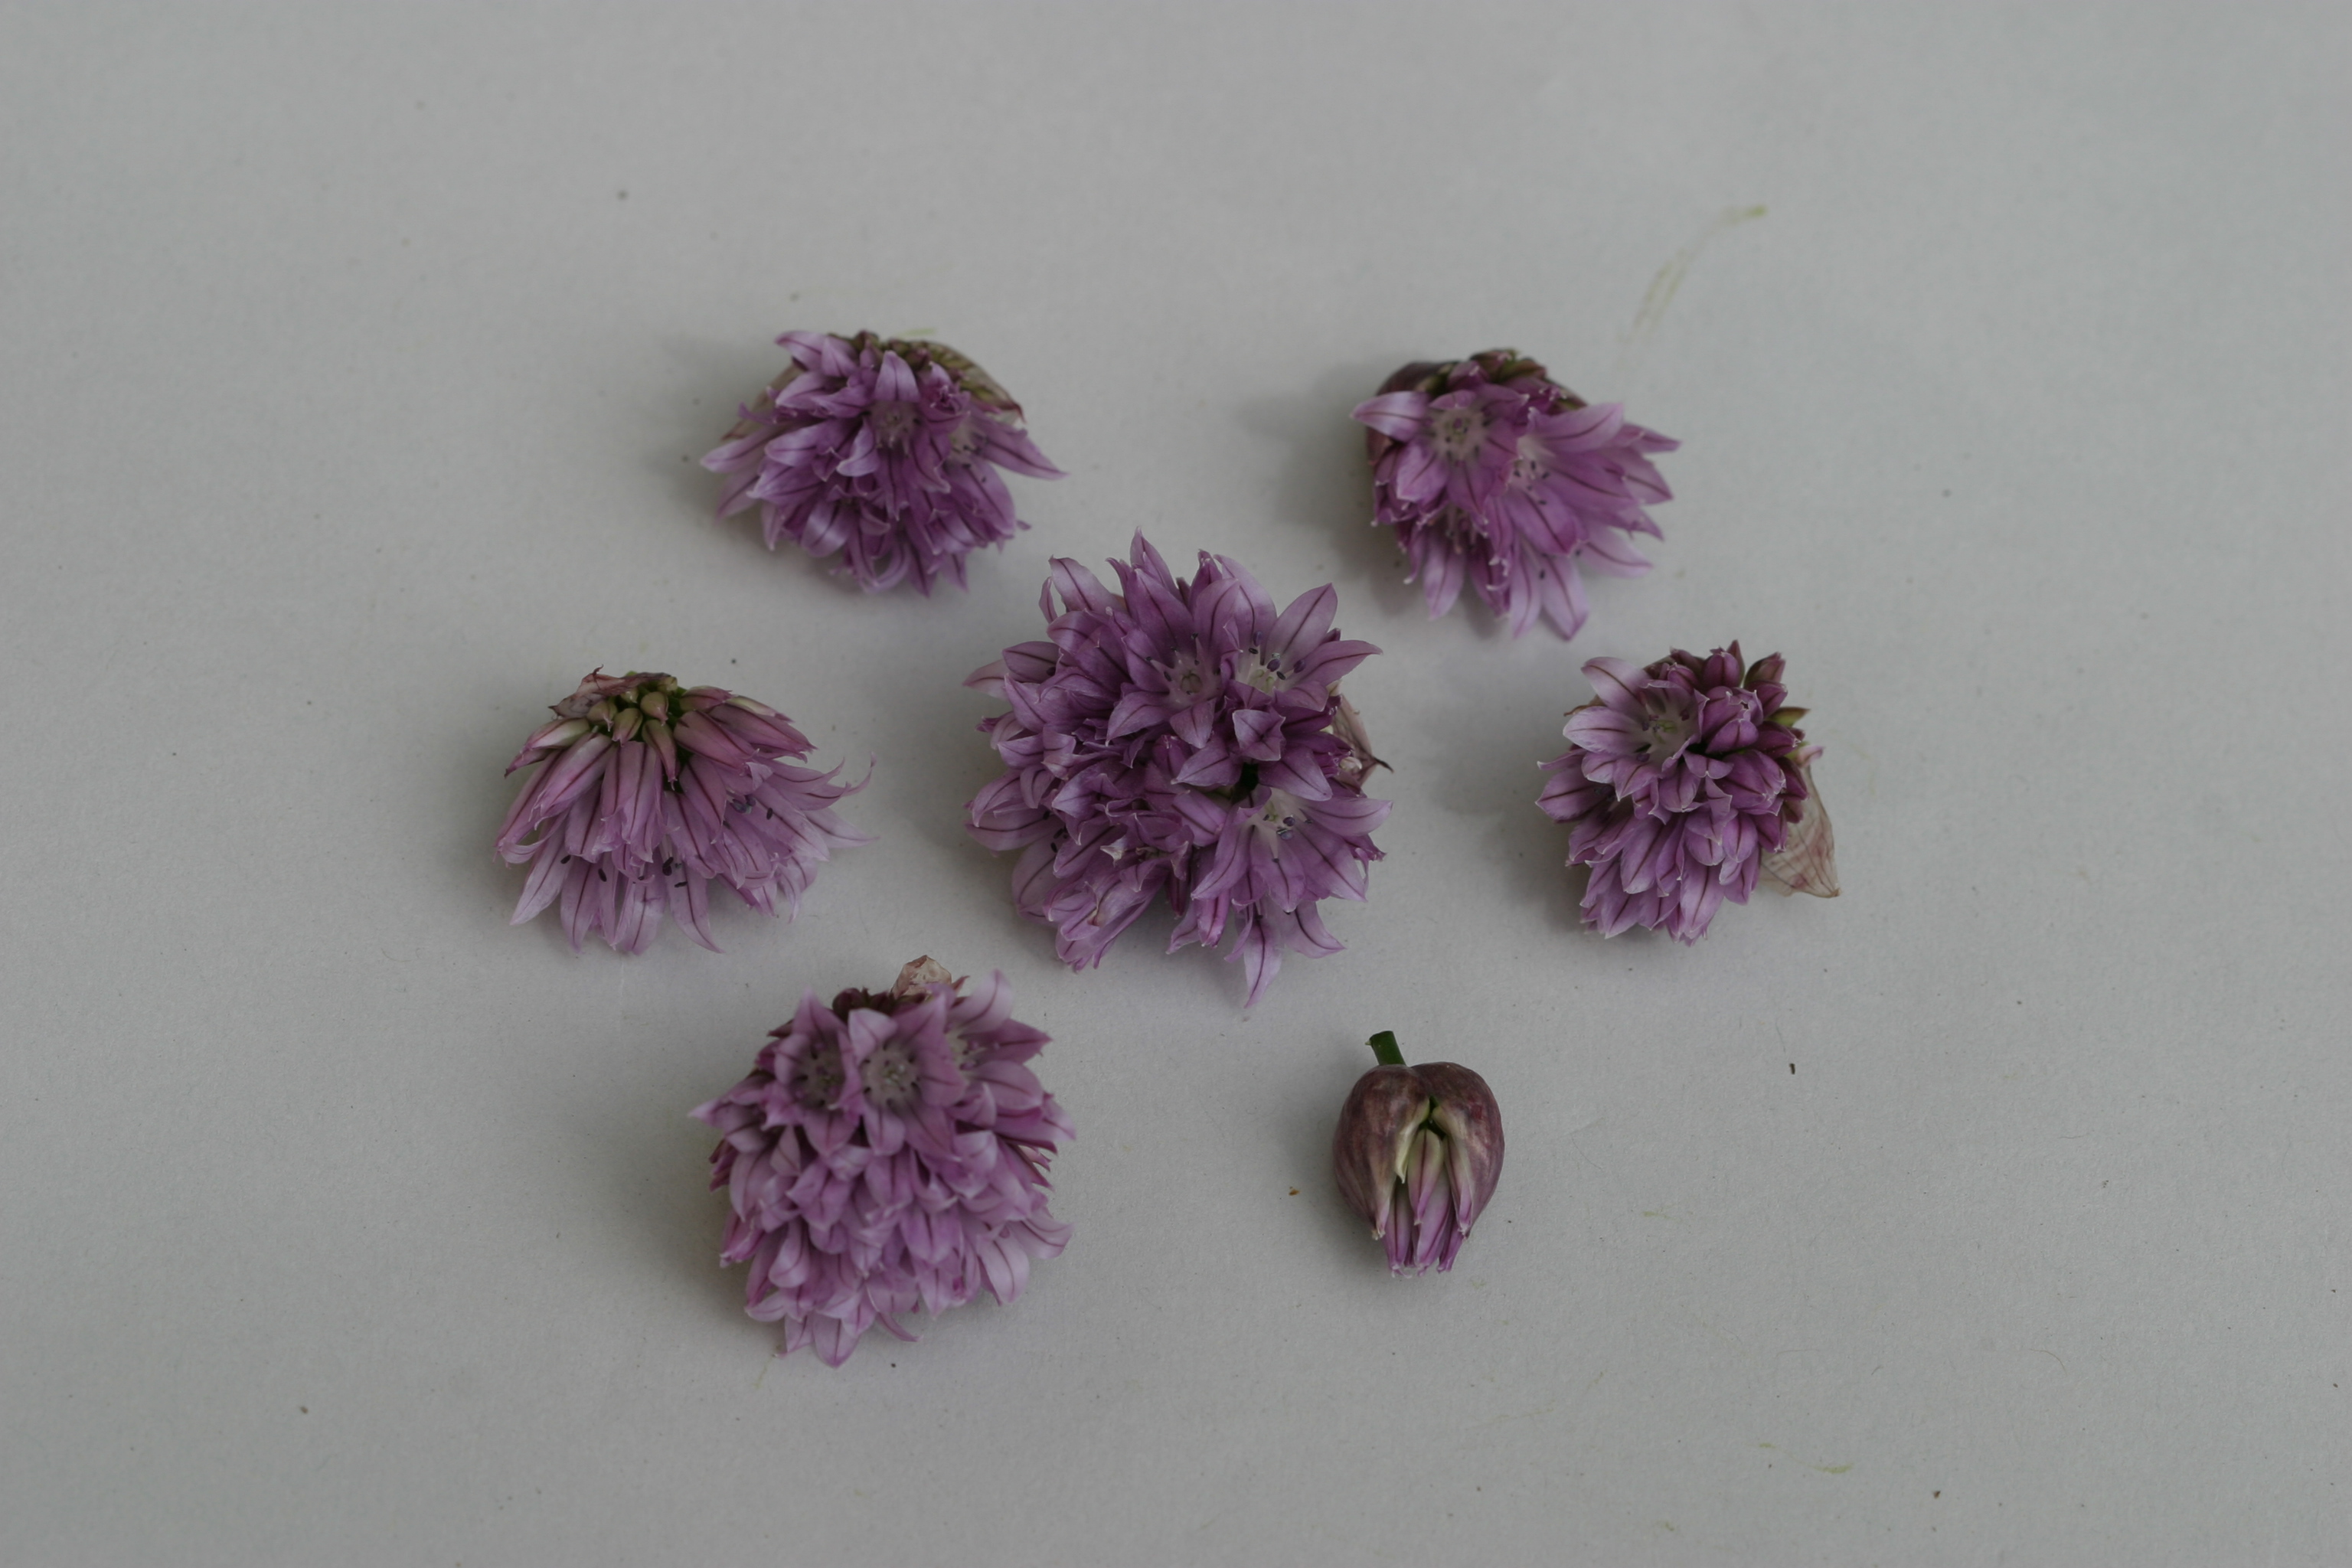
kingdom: Plantae
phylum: Tracheophyta
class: Liliopsida
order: Asparagales
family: Amaryllidaceae
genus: Allium
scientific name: Allium schoenoprasum
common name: Chives
